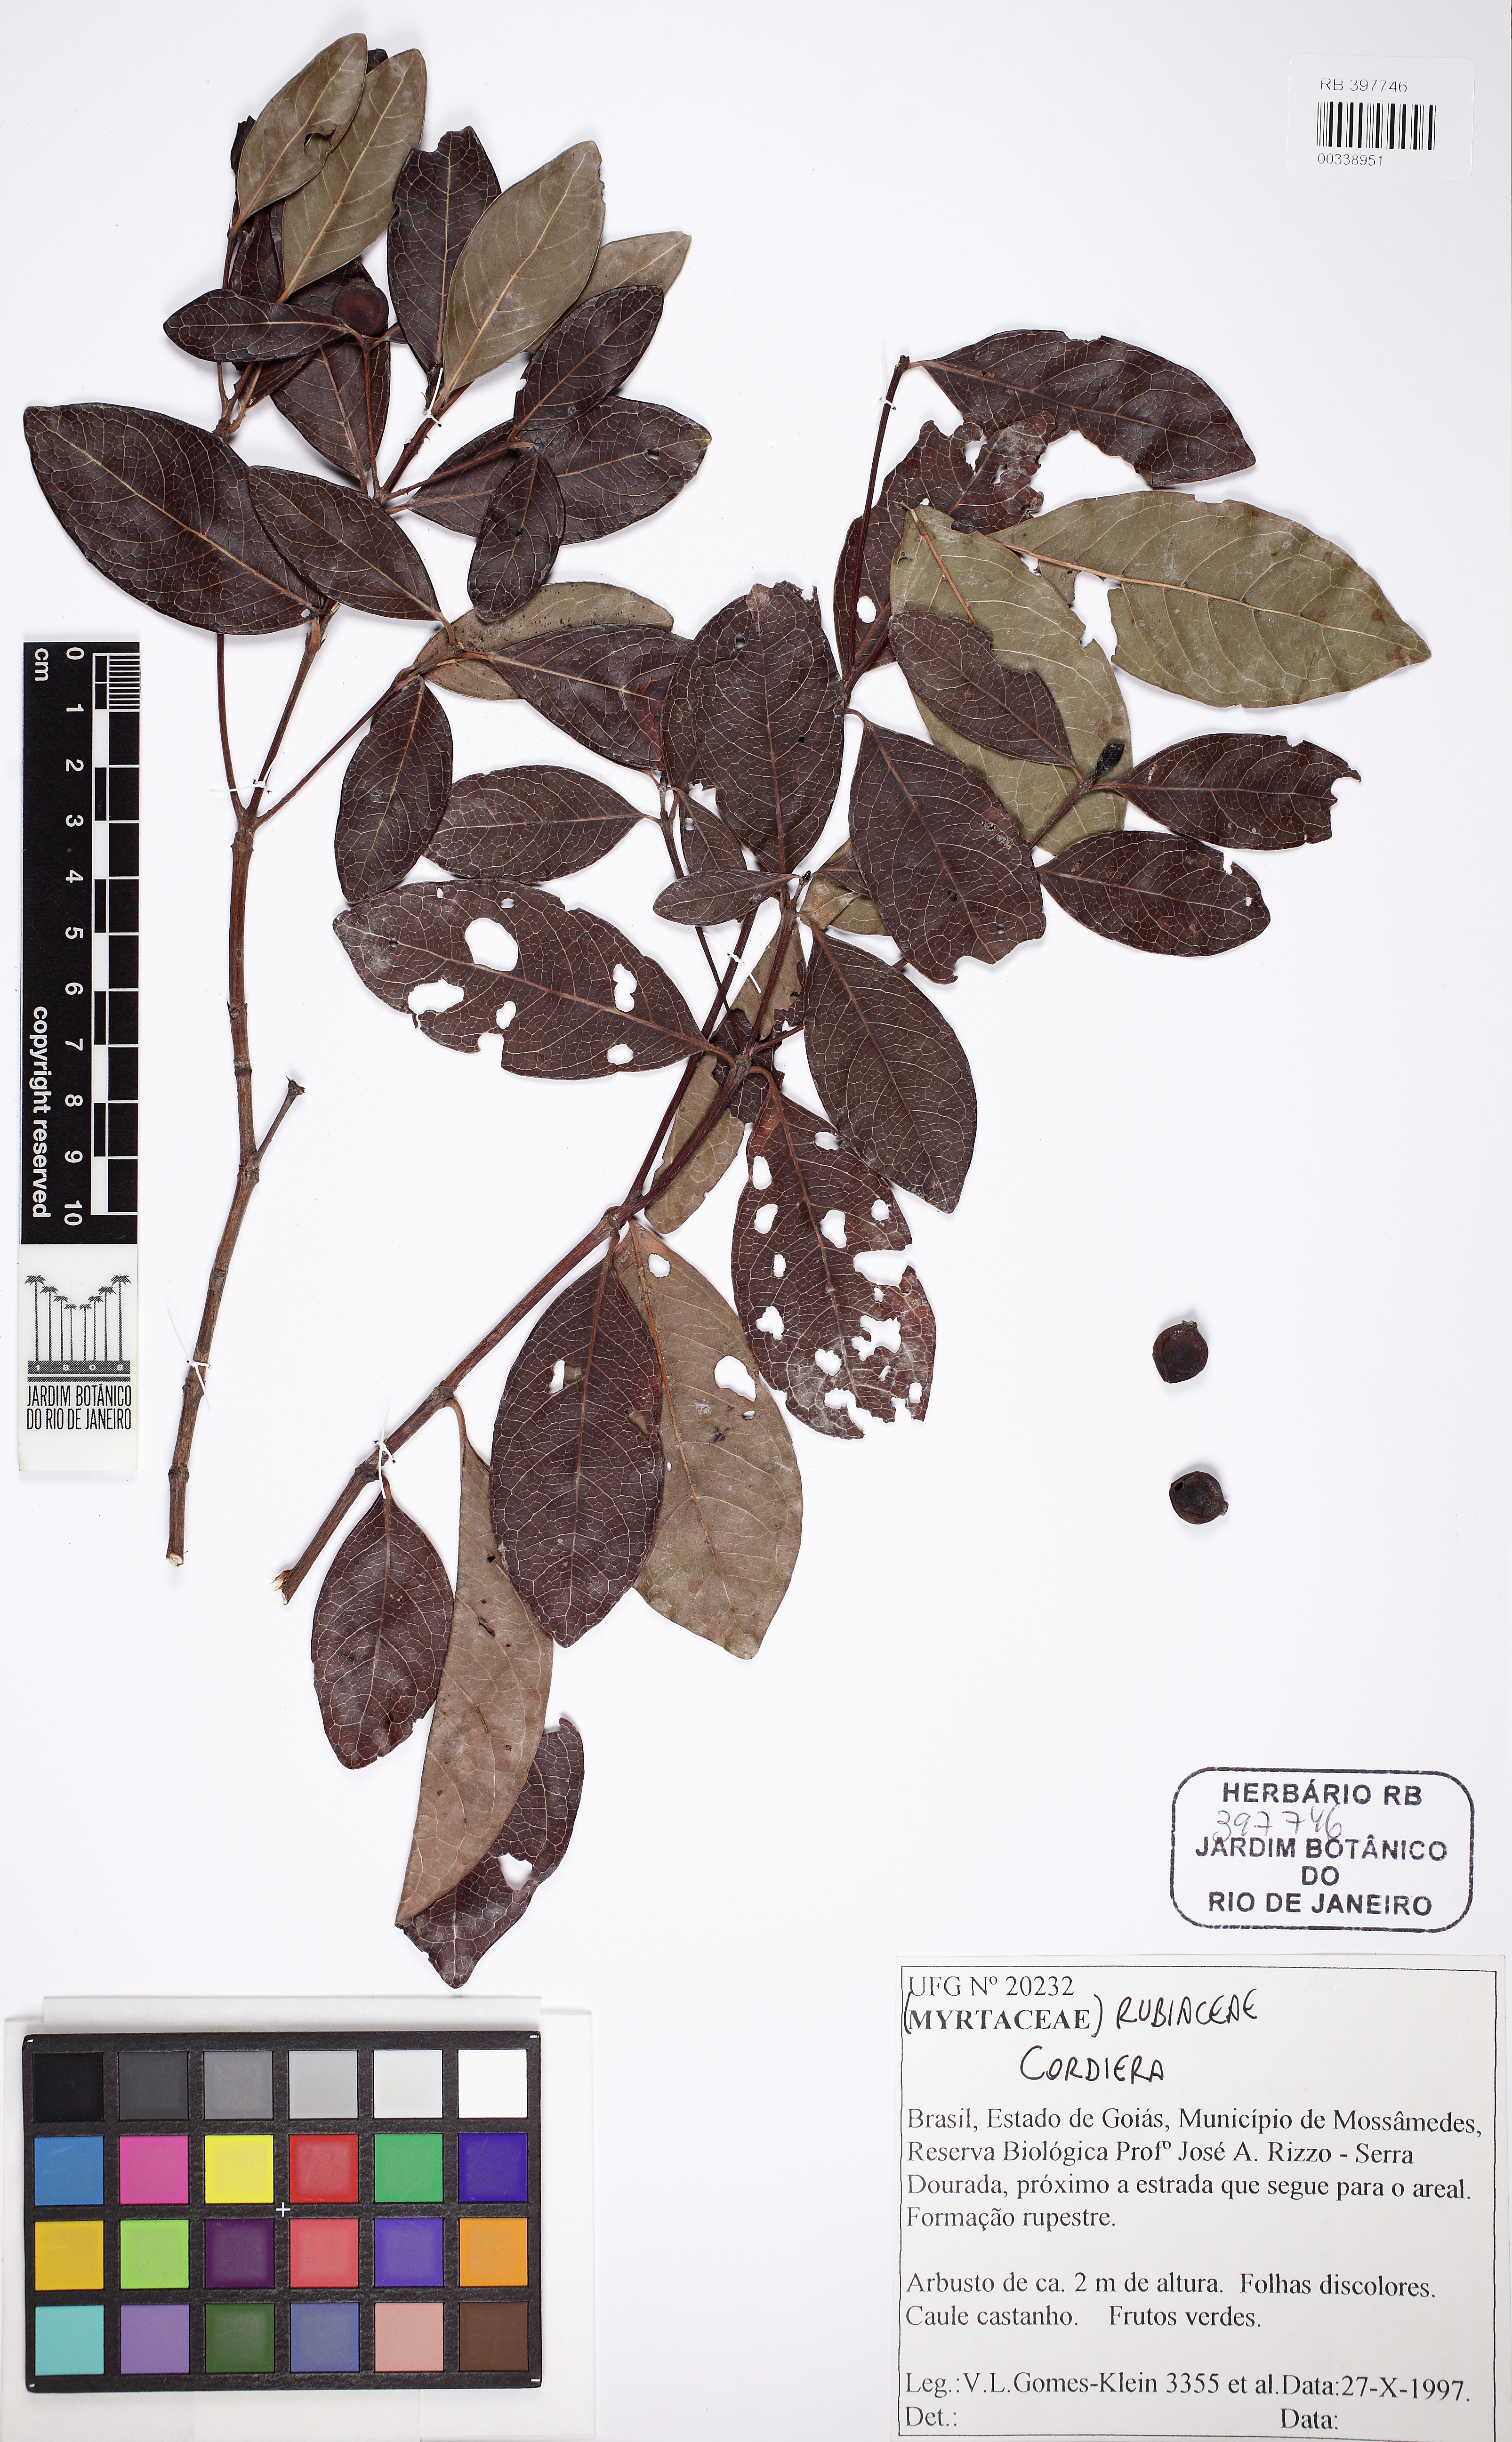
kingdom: Plantae
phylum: Tracheophyta
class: Magnoliopsida
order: Gentianales
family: Rubiaceae
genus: Cordiera
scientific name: Cordiera elliptica
